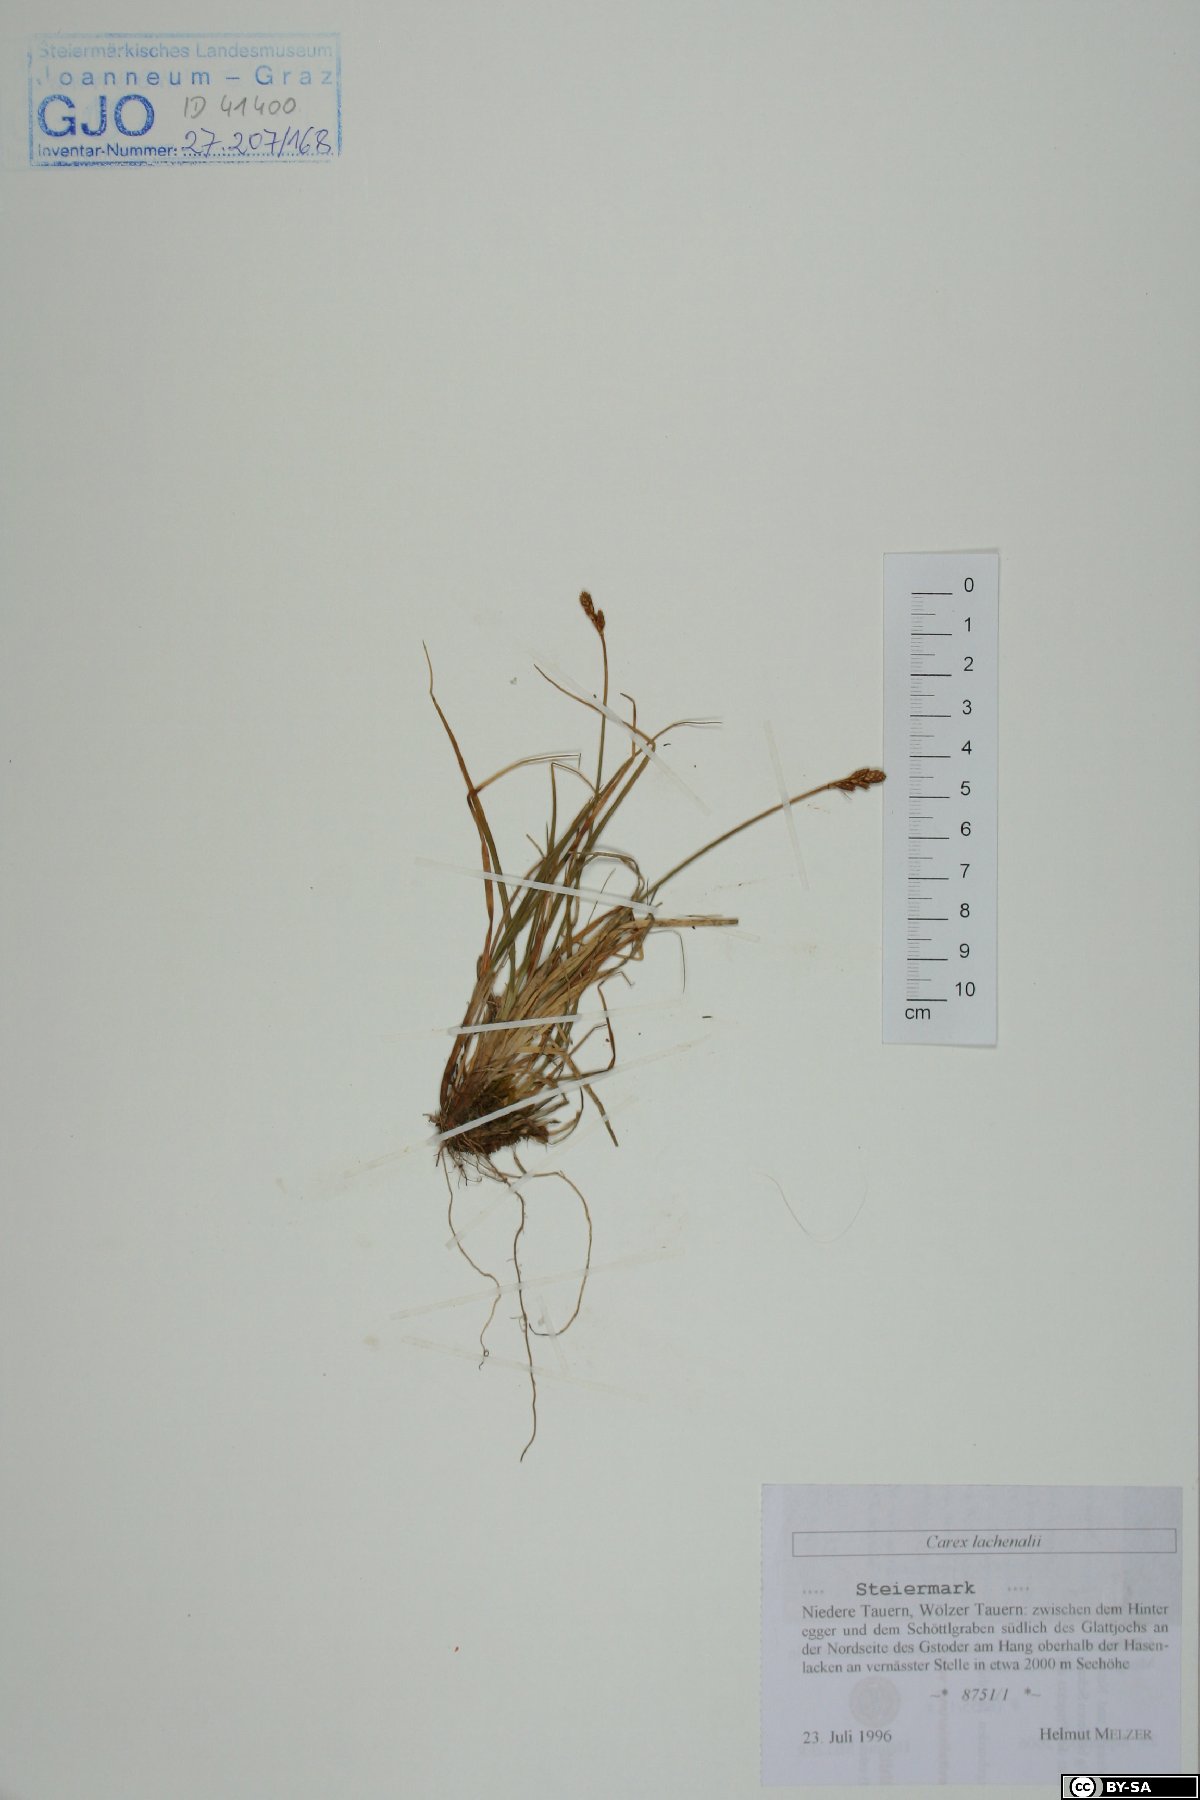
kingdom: Plantae
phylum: Tracheophyta
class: Liliopsida
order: Poales
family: Cyperaceae
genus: Carex
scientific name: Carex lachenalii
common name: Hare's-foot sedge
